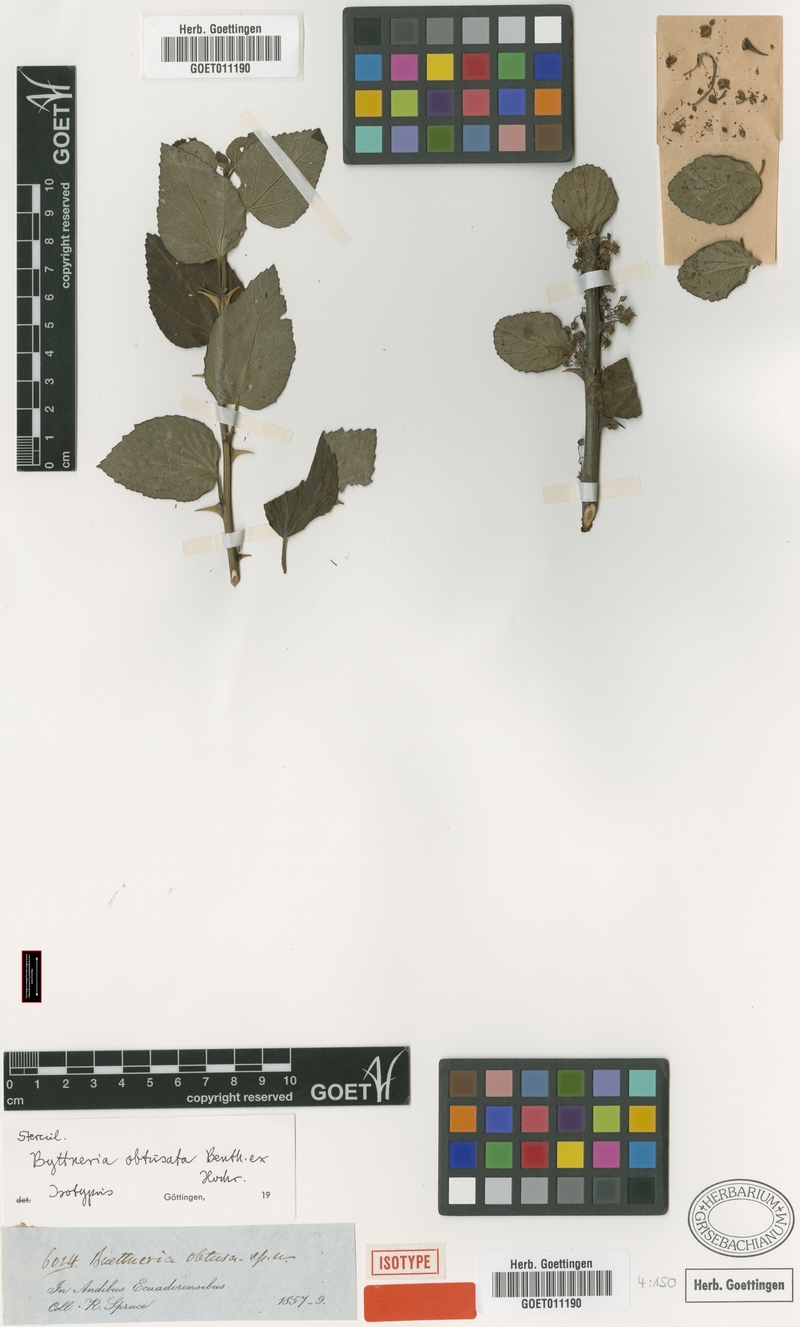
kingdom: Plantae
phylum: Tracheophyta
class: Magnoliopsida
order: Malvales
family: Malvaceae
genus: Byttneria
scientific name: Byttneria geminifolia
